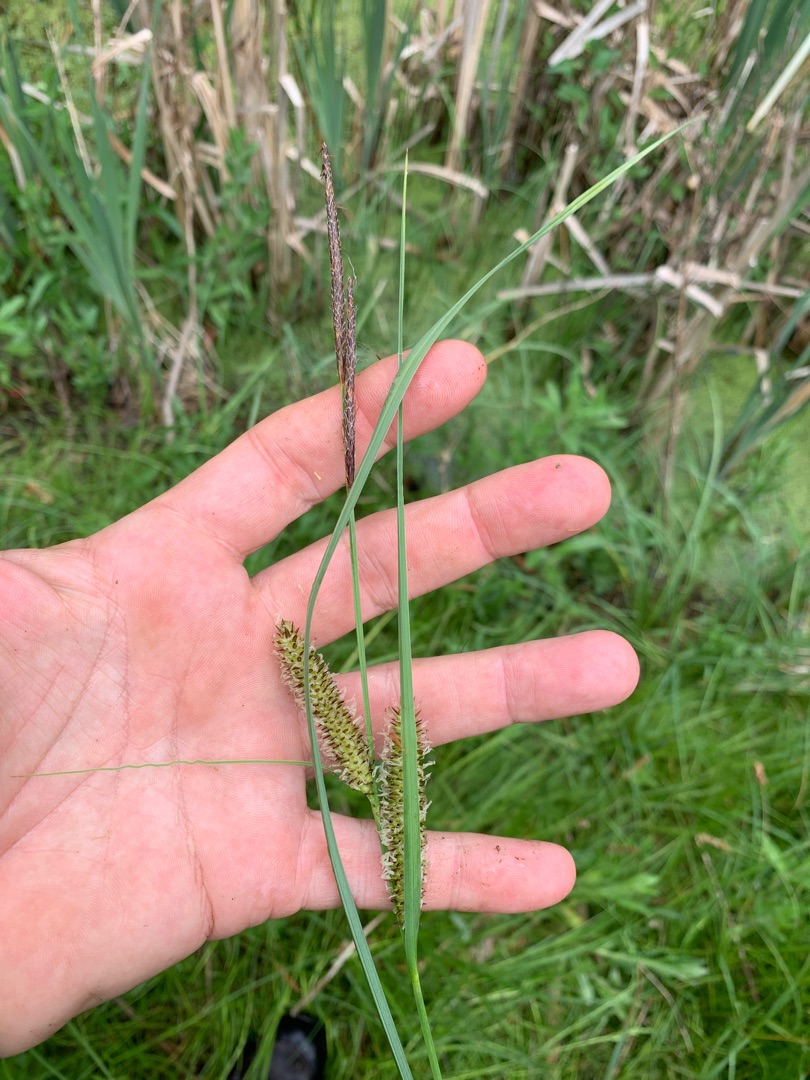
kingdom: Plantae
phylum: Tracheophyta
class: Liliopsida
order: Poales
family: Cyperaceae
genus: Carex
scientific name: Carex rostrata
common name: Næb-star
